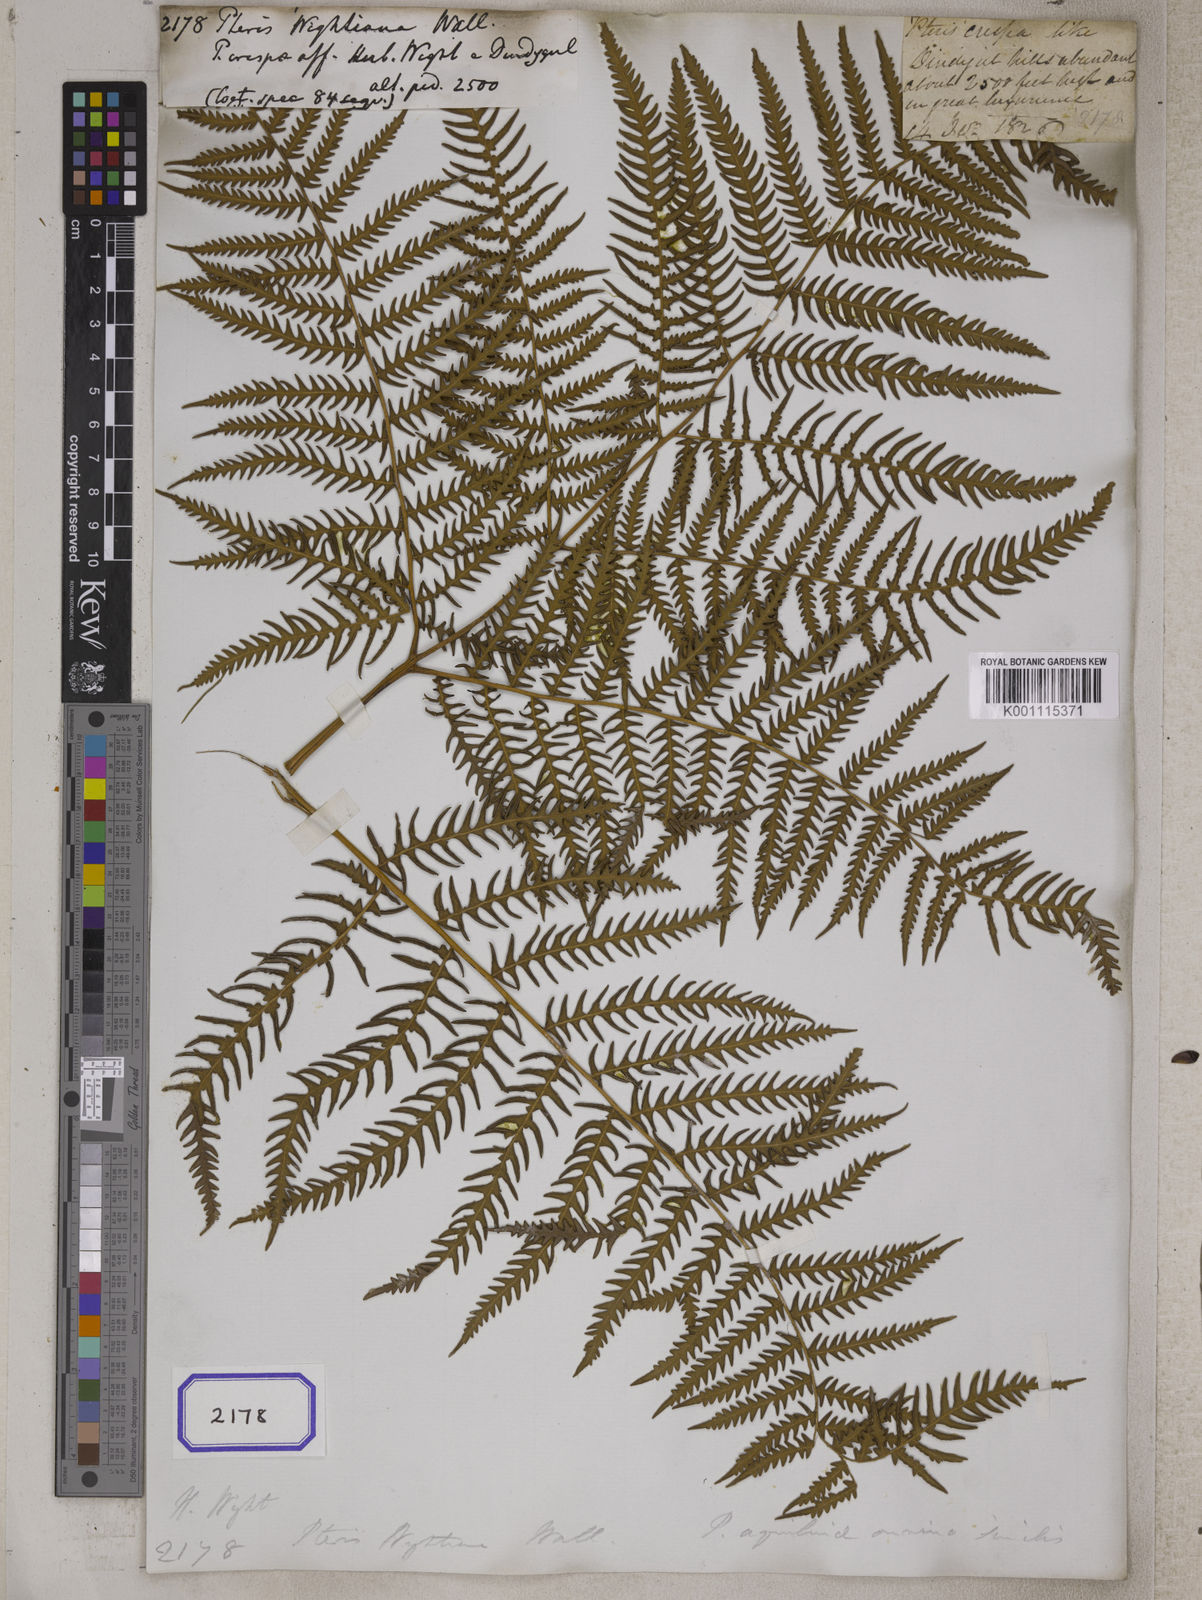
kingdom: Plantae
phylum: Tracheophyta
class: Polypodiopsida
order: Polypodiales
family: Dennstaedtiaceae
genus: Pteridium
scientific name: Pteridium aquilinum
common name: Bracken
